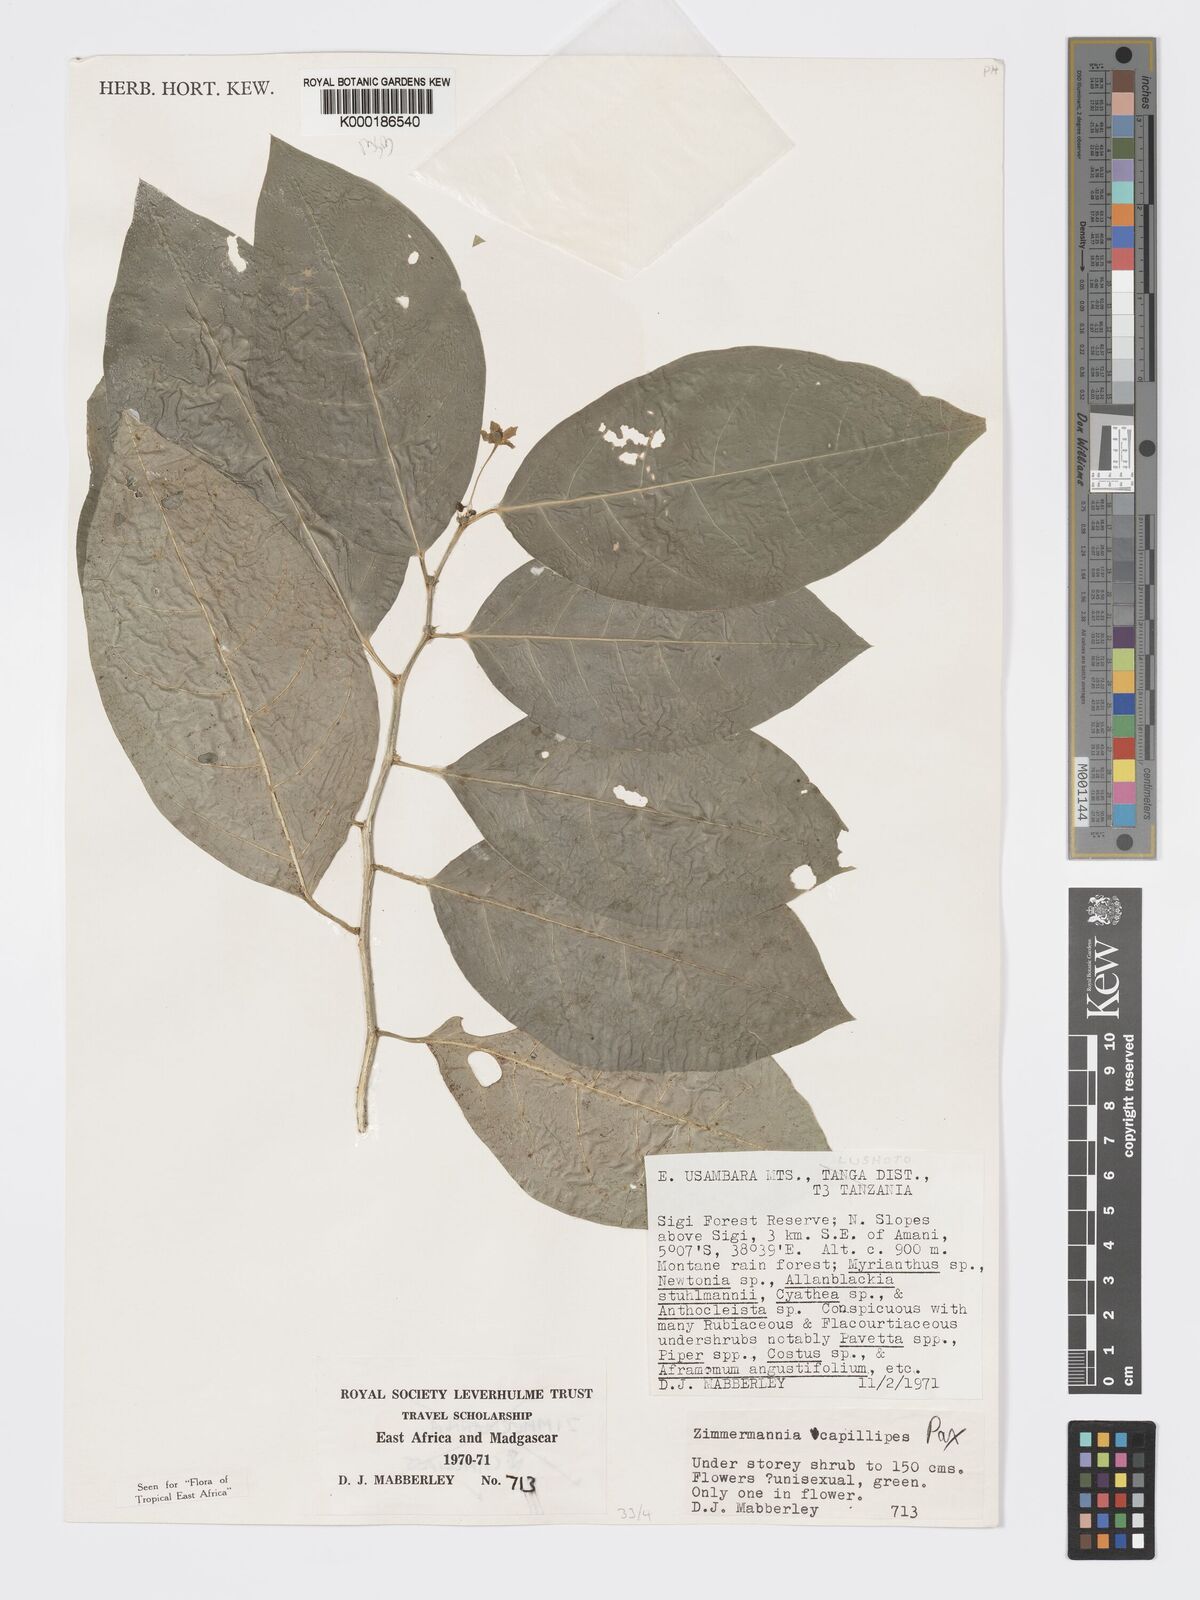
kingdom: Plantae
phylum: Tracheophyta
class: Magnoliopsida
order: Malpighiales
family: Phyllanthaceae
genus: Meineckia
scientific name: Meineckia paxii
